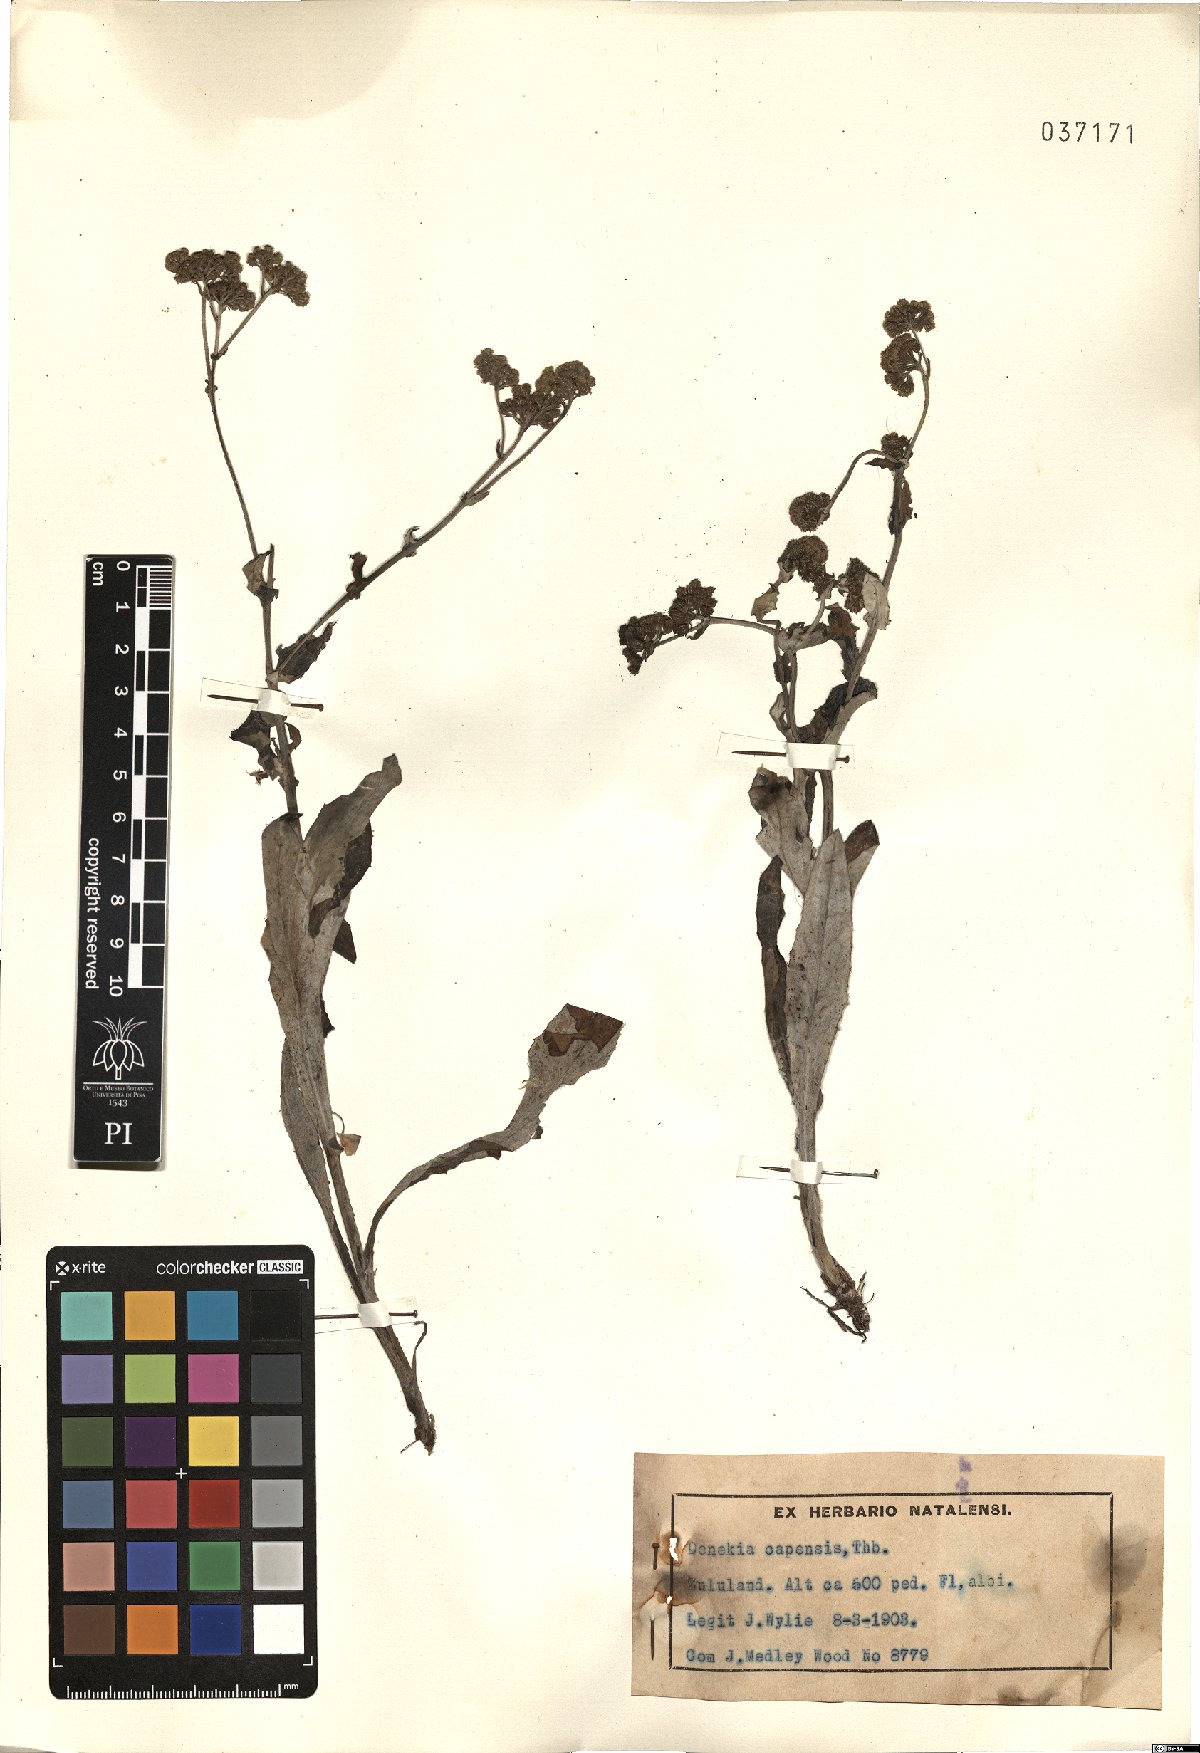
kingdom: Plantae
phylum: Tracheophyta
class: Magnoliopsida
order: Asterales
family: Asteraceae
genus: Denekia
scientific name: Denekia capensis
